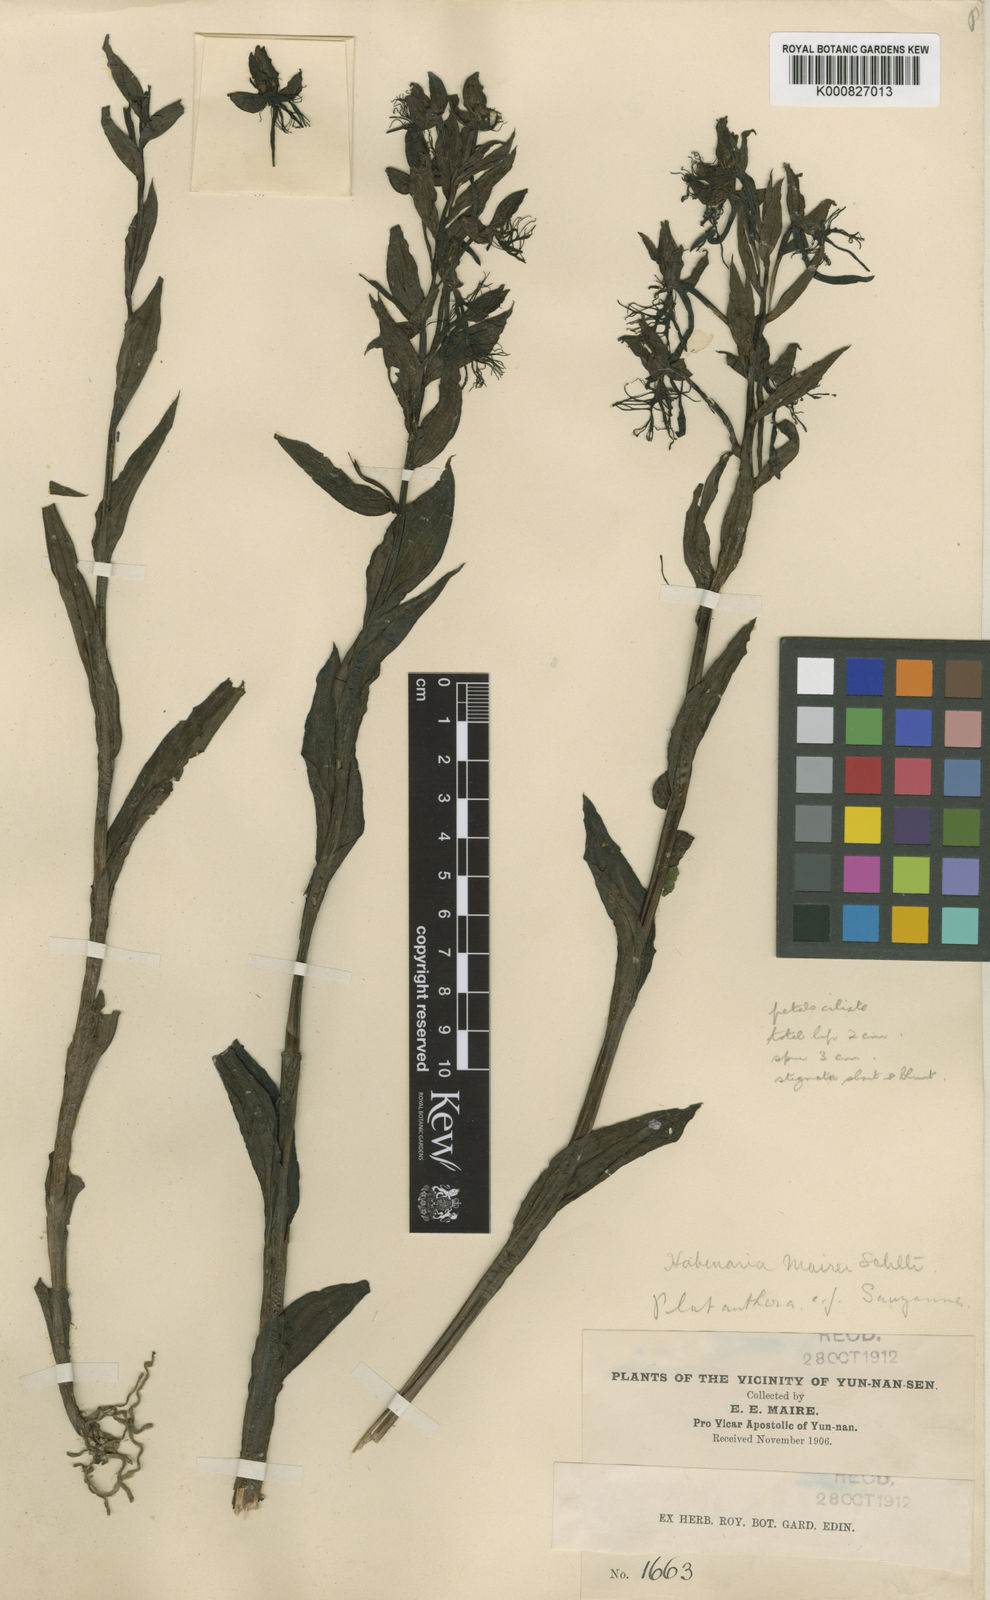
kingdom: Plantae
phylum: Tracheophyta
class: Liliopsida
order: Asparagales
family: Orchidaceae
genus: Habenaria
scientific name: Habenaria mairei
